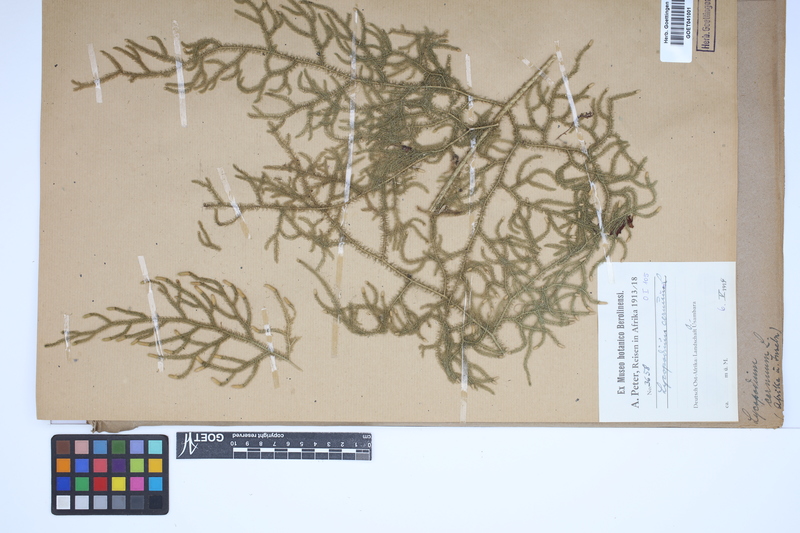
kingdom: Plantae
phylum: Tracheophyta
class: Lycopodiopsida
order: Lycopodiales
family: Lycopodiaceae
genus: Palhinhaea
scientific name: Palhinhaea cernua
